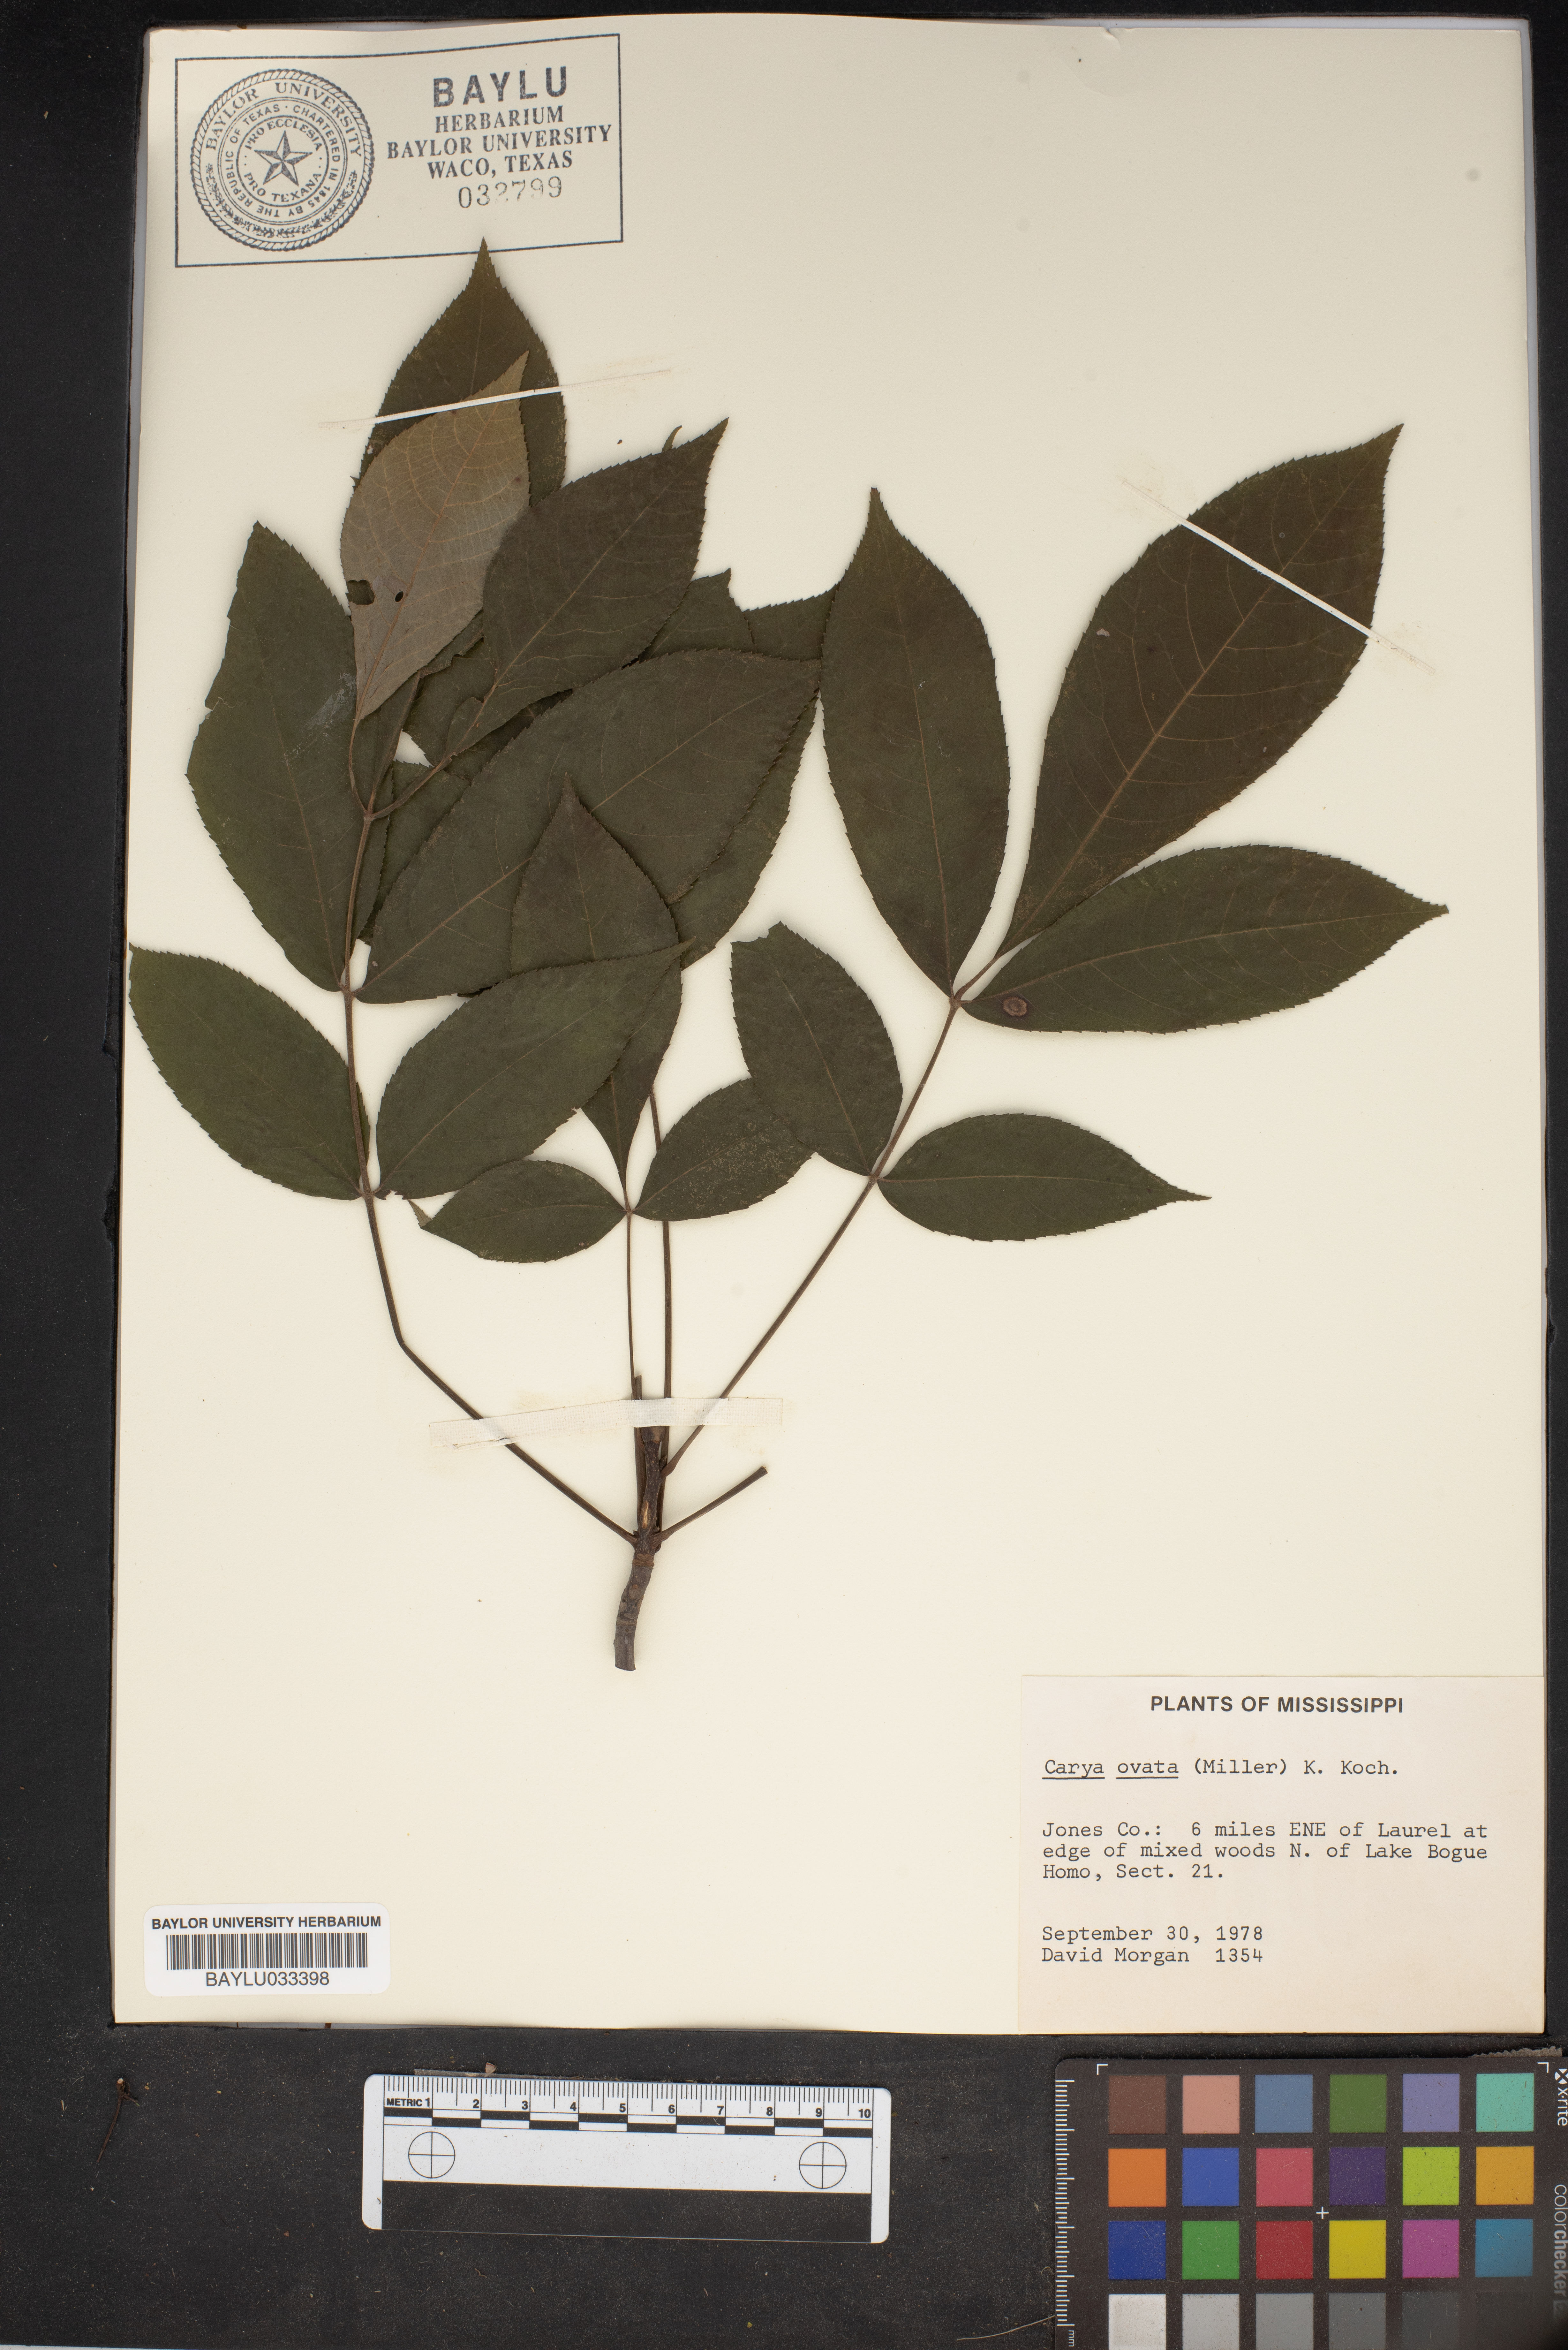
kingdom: Plantae
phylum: Tracheophyta
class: Magnoliopsida
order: Fagales
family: Juglandaceae
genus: Carya
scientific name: Carya ovata
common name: Shagbark hickory
